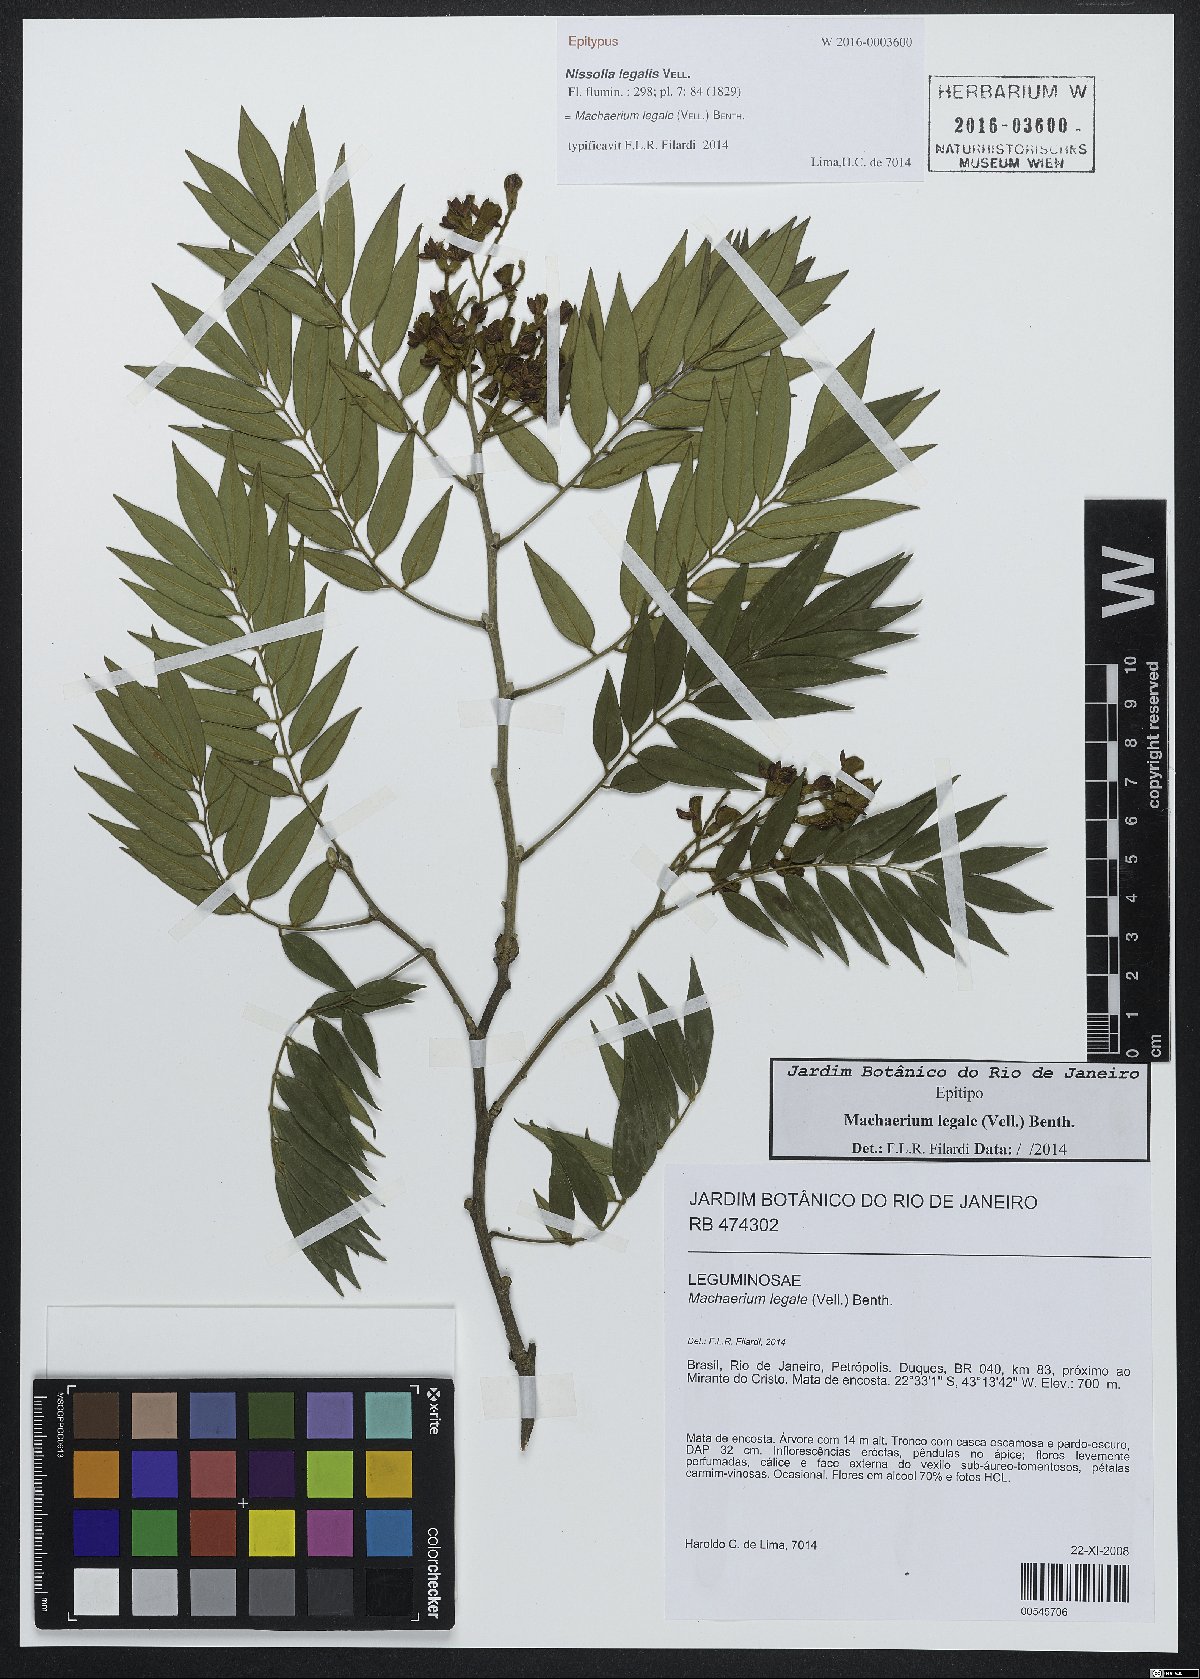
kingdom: Plantae
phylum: Tracheophyta
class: Magnoliopsida
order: Fabales
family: Fabaceae
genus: Machaerium
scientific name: Machaerium legale
